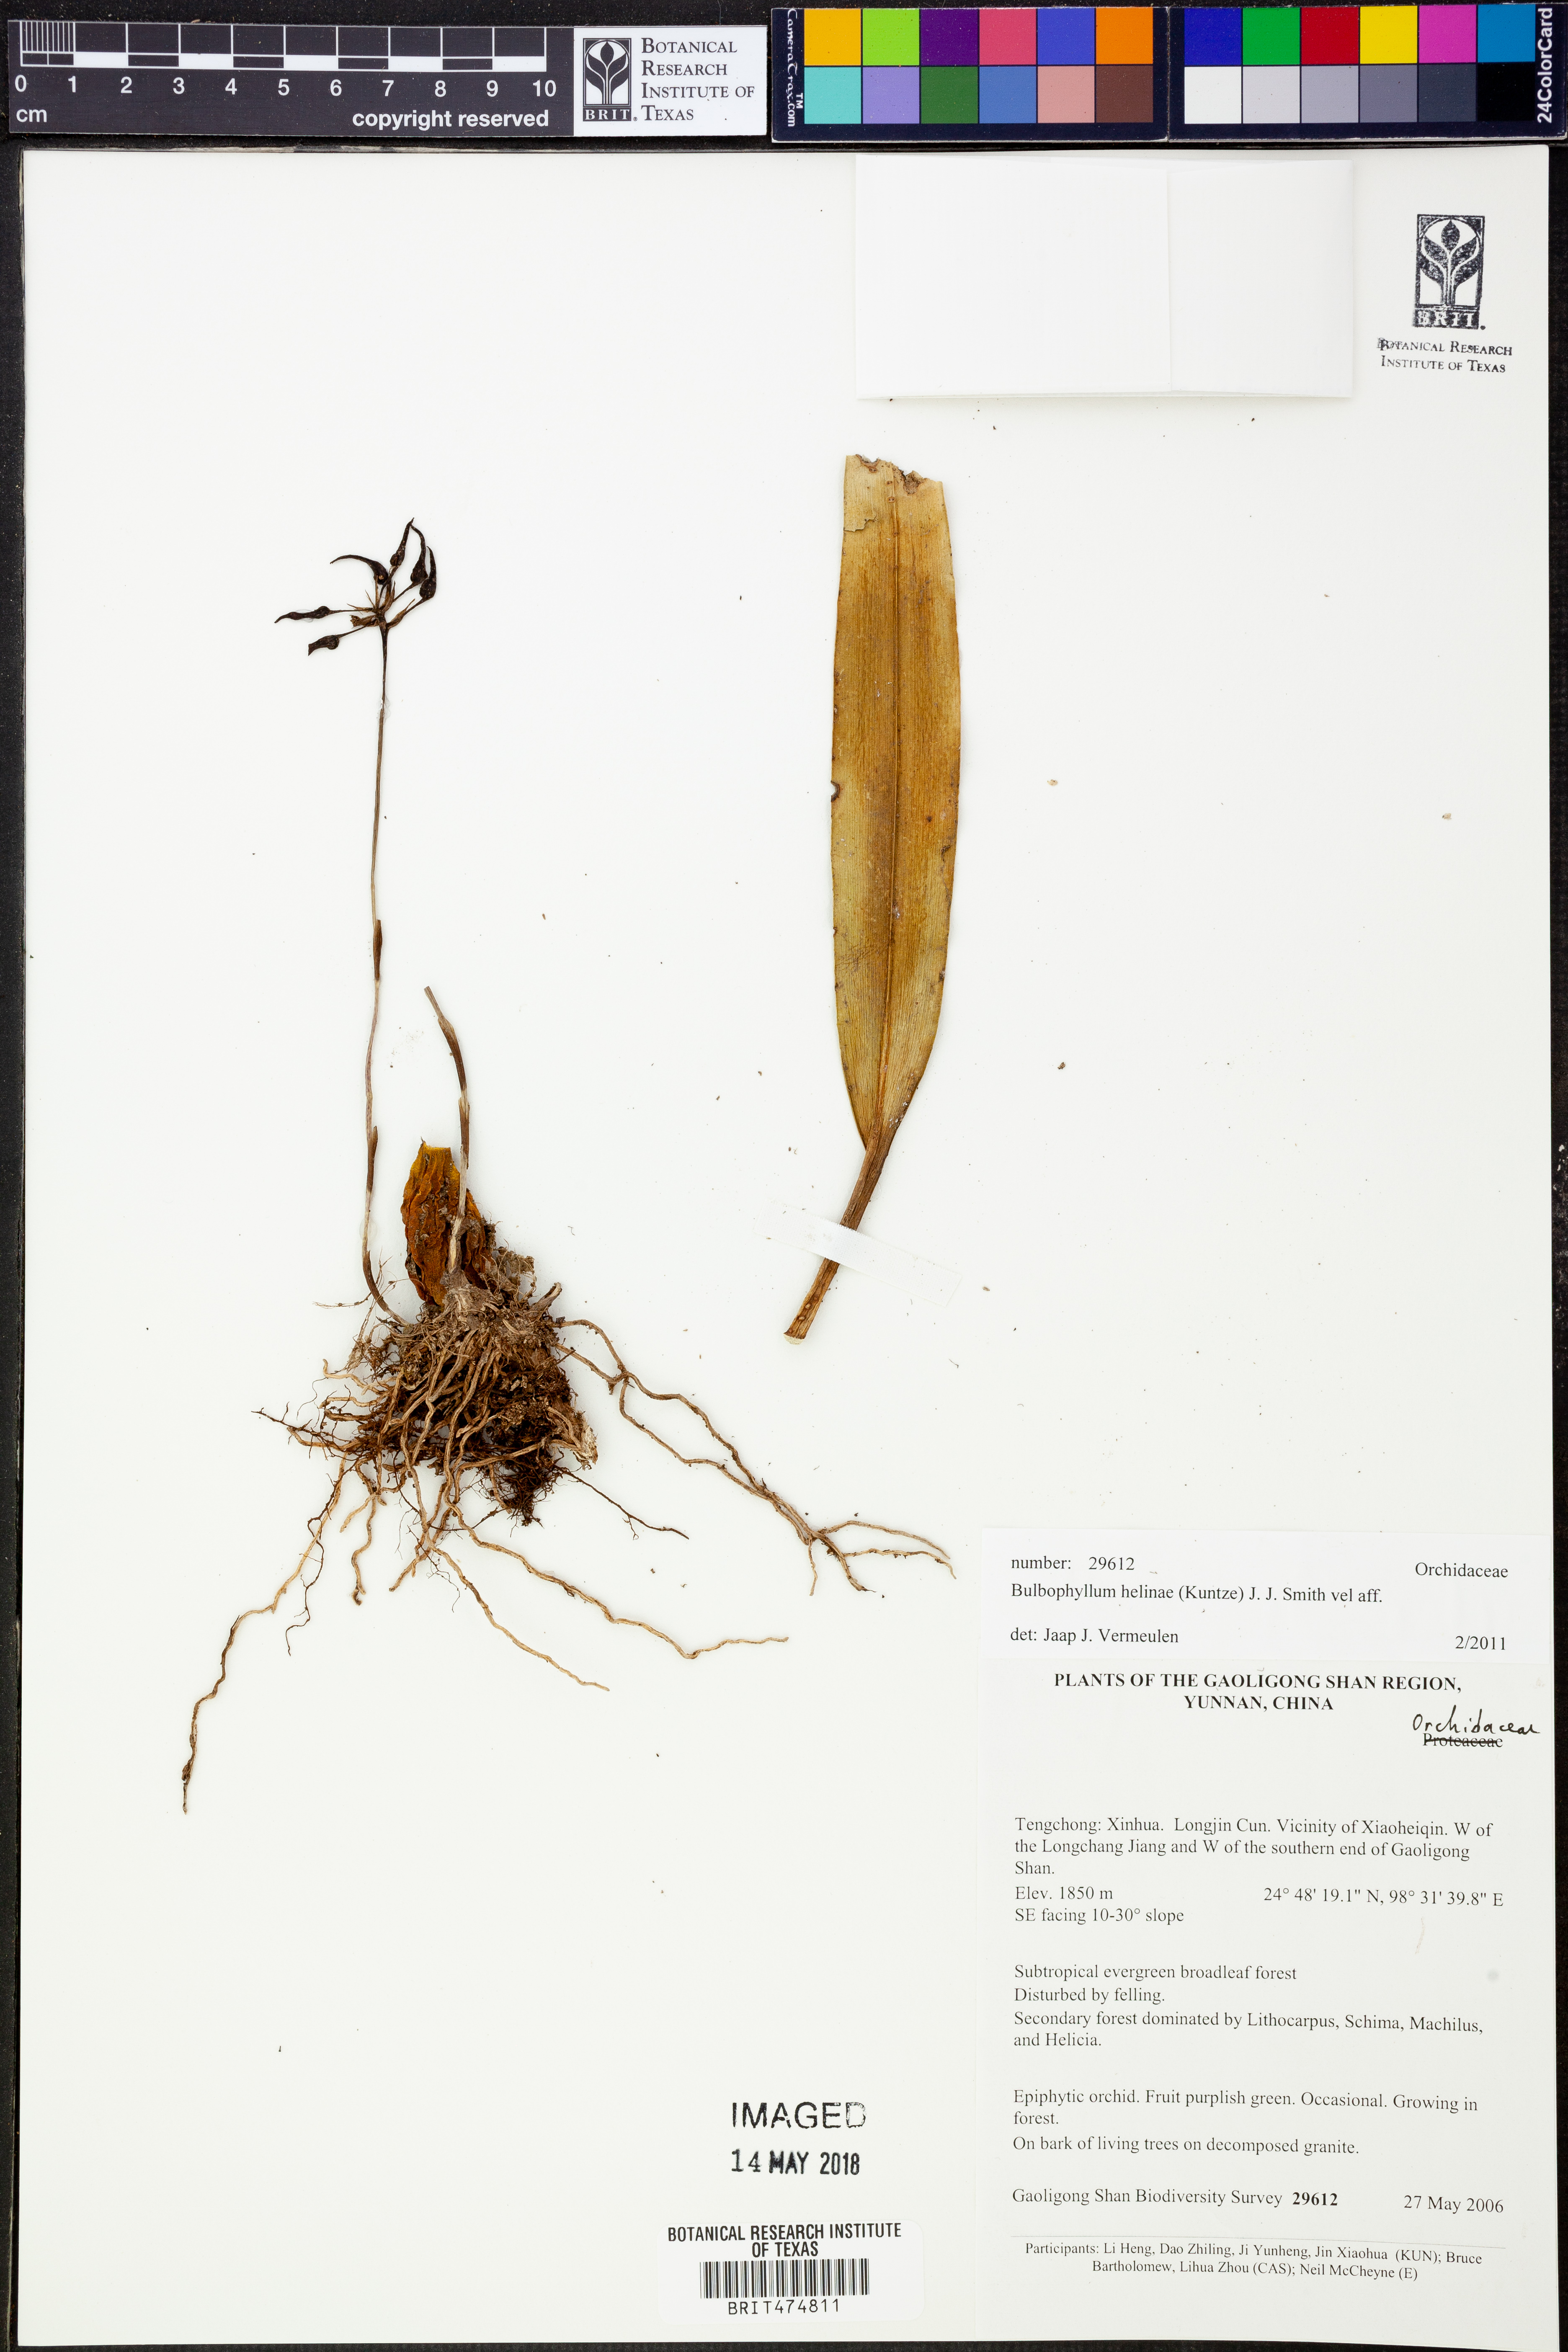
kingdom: Plantae
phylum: Tracheophyta
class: Liliopsida
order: Asparagales
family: Orchidaceae
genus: Bulbophyllum
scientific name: Bulbophyllum helenae
